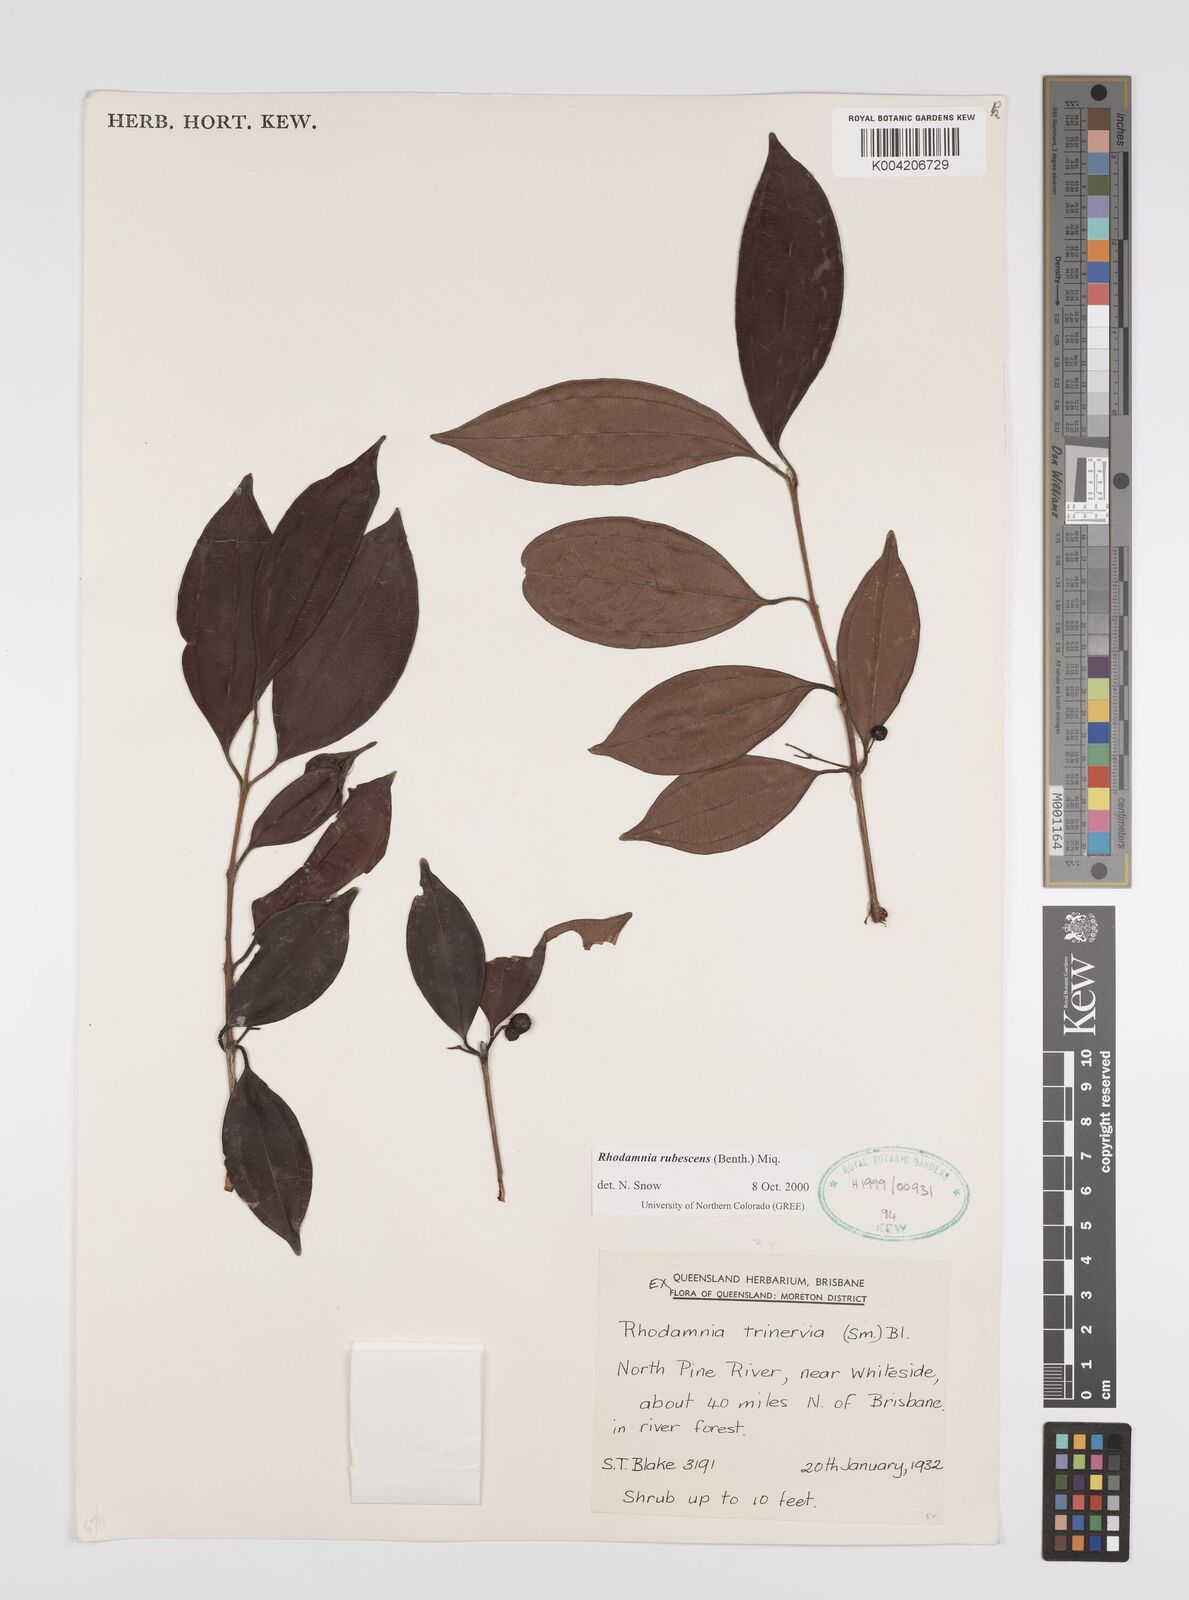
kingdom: Plantae
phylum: Tracheophyta
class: Magnoliopsida
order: Myrtales
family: Myrtaceae
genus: Rhodamnia
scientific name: Rhodamnia rubescens
